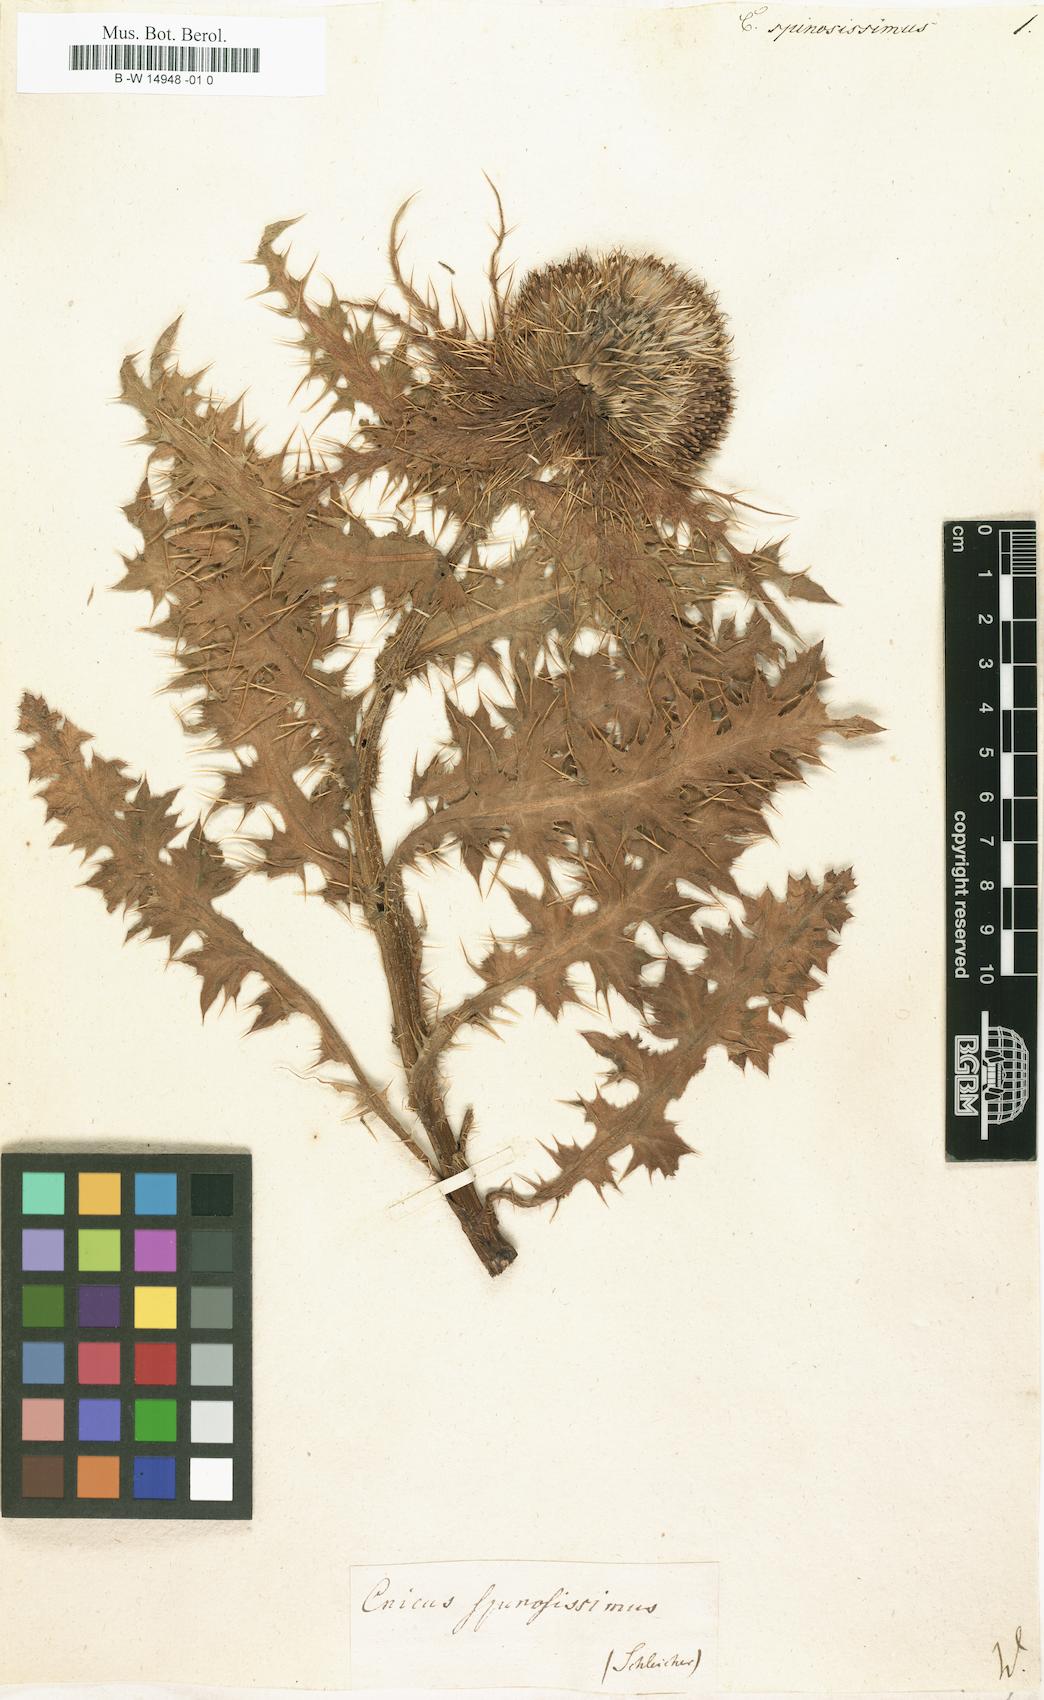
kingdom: Plantae
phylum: Tracheophyta
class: Magnoliopsida
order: Asterales
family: Asteraceae
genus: Cirsium
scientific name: Cirsium Cnicus spinosissimus
